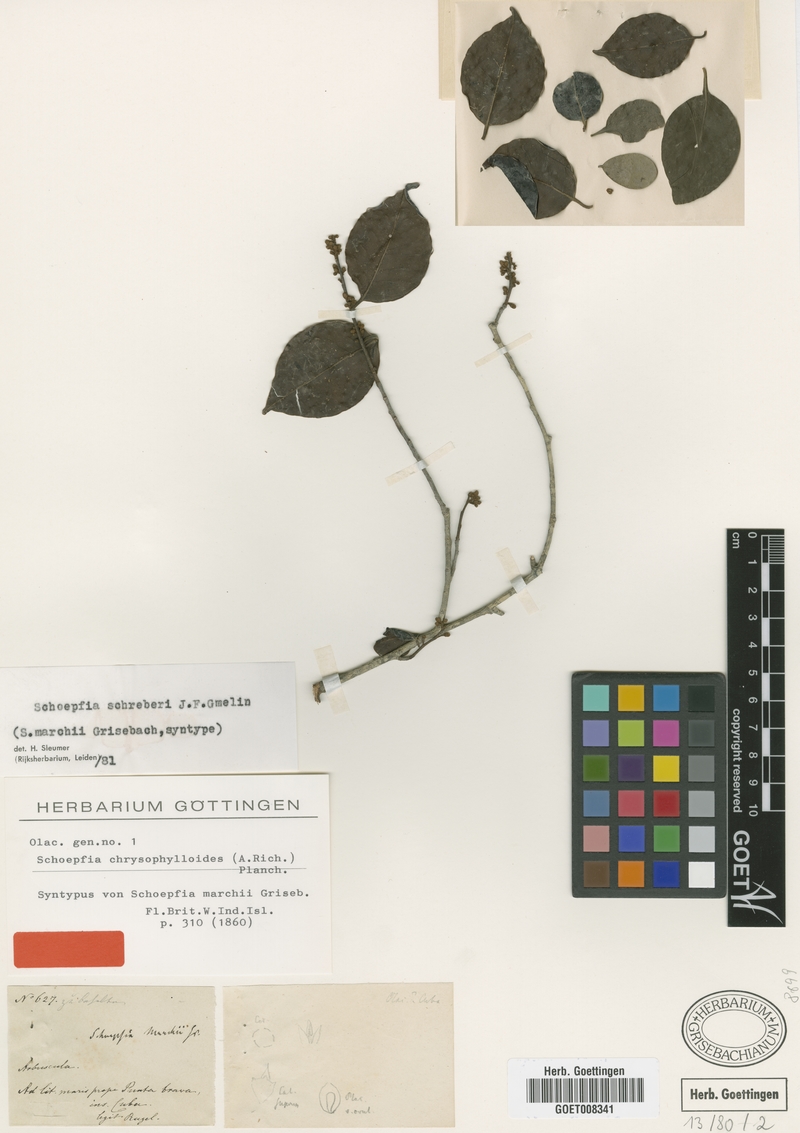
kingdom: Plantae
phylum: Tracheophyta
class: Magnoliopsida
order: Santalales
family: Schoepfiaceae
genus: Schoepfia
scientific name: Schoepfia schreberi
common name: Gulf graytwig
